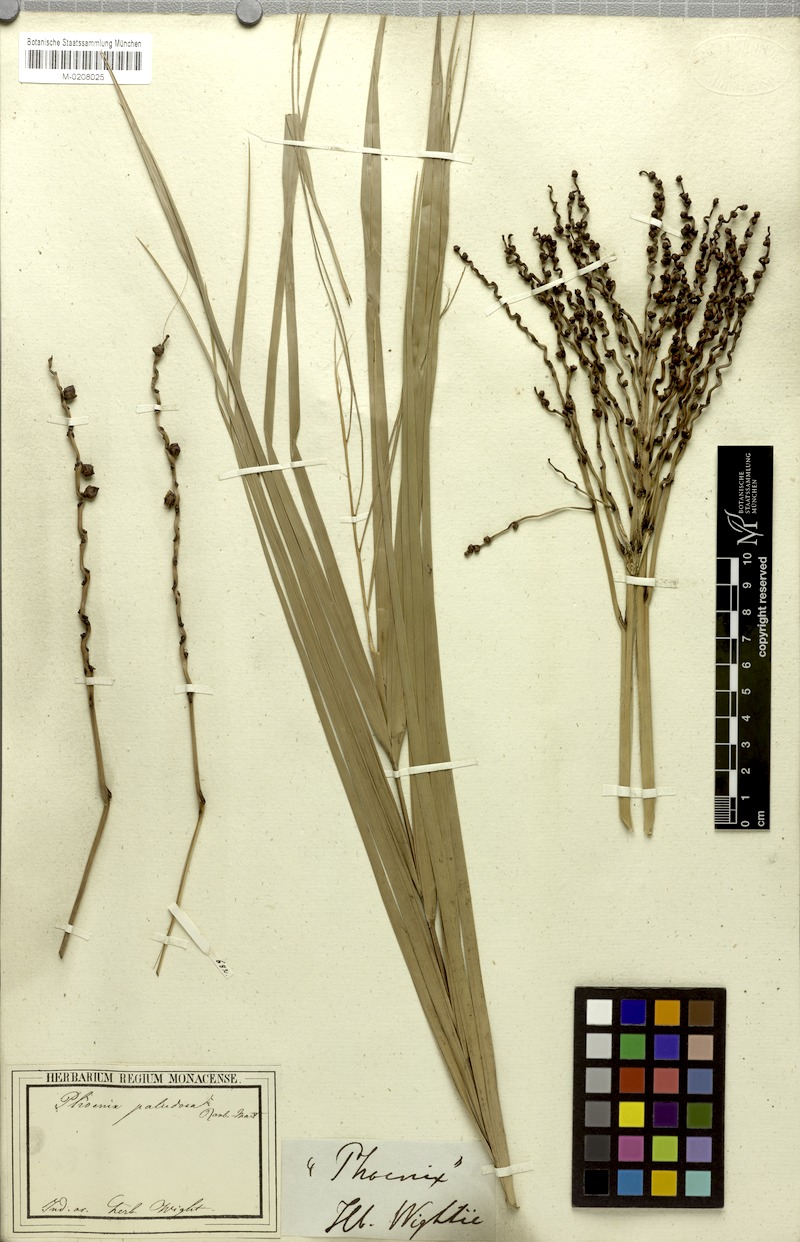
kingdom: Plantae
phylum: Tracheophyta
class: Liliopsida
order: Arecales
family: Arecaceae
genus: Phoenix
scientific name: Phoenix paludosa
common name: Mangrove date palm
